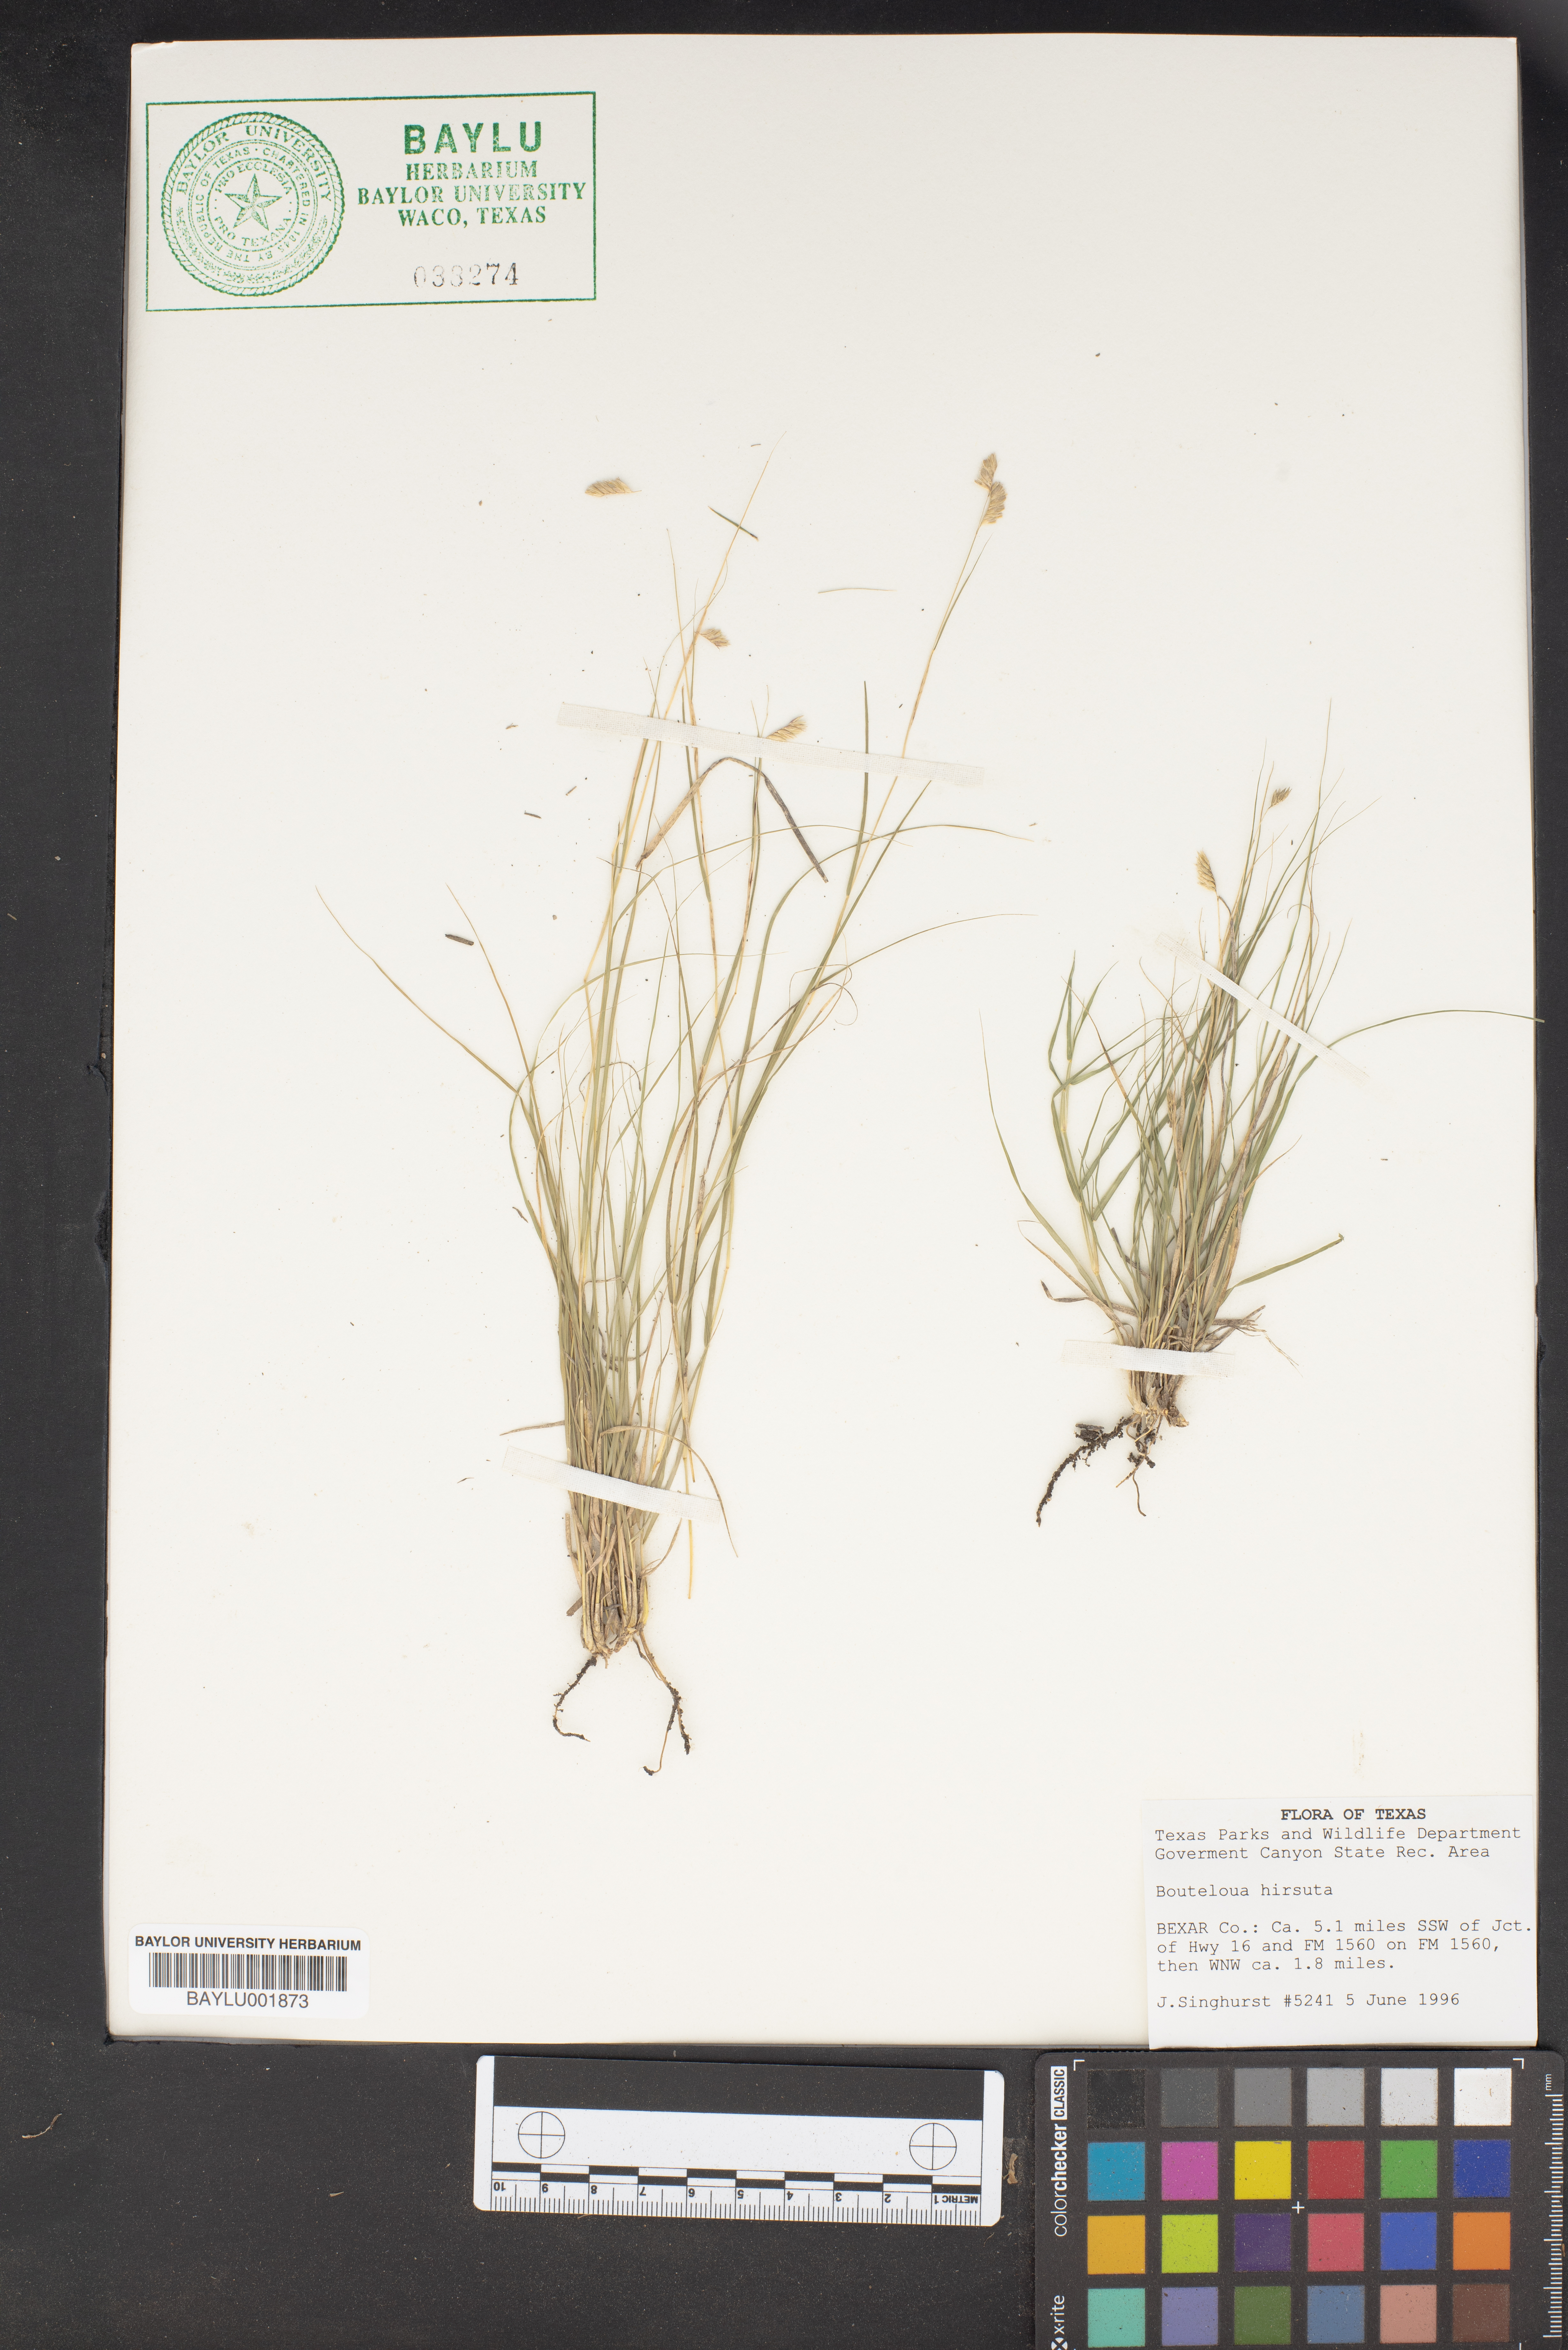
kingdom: Plantae
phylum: Tracheophyta
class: Liliopsida
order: Poales
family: Poaceae
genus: Bouteloua
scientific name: Bouteloua hirsuta
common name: Hairy grama
